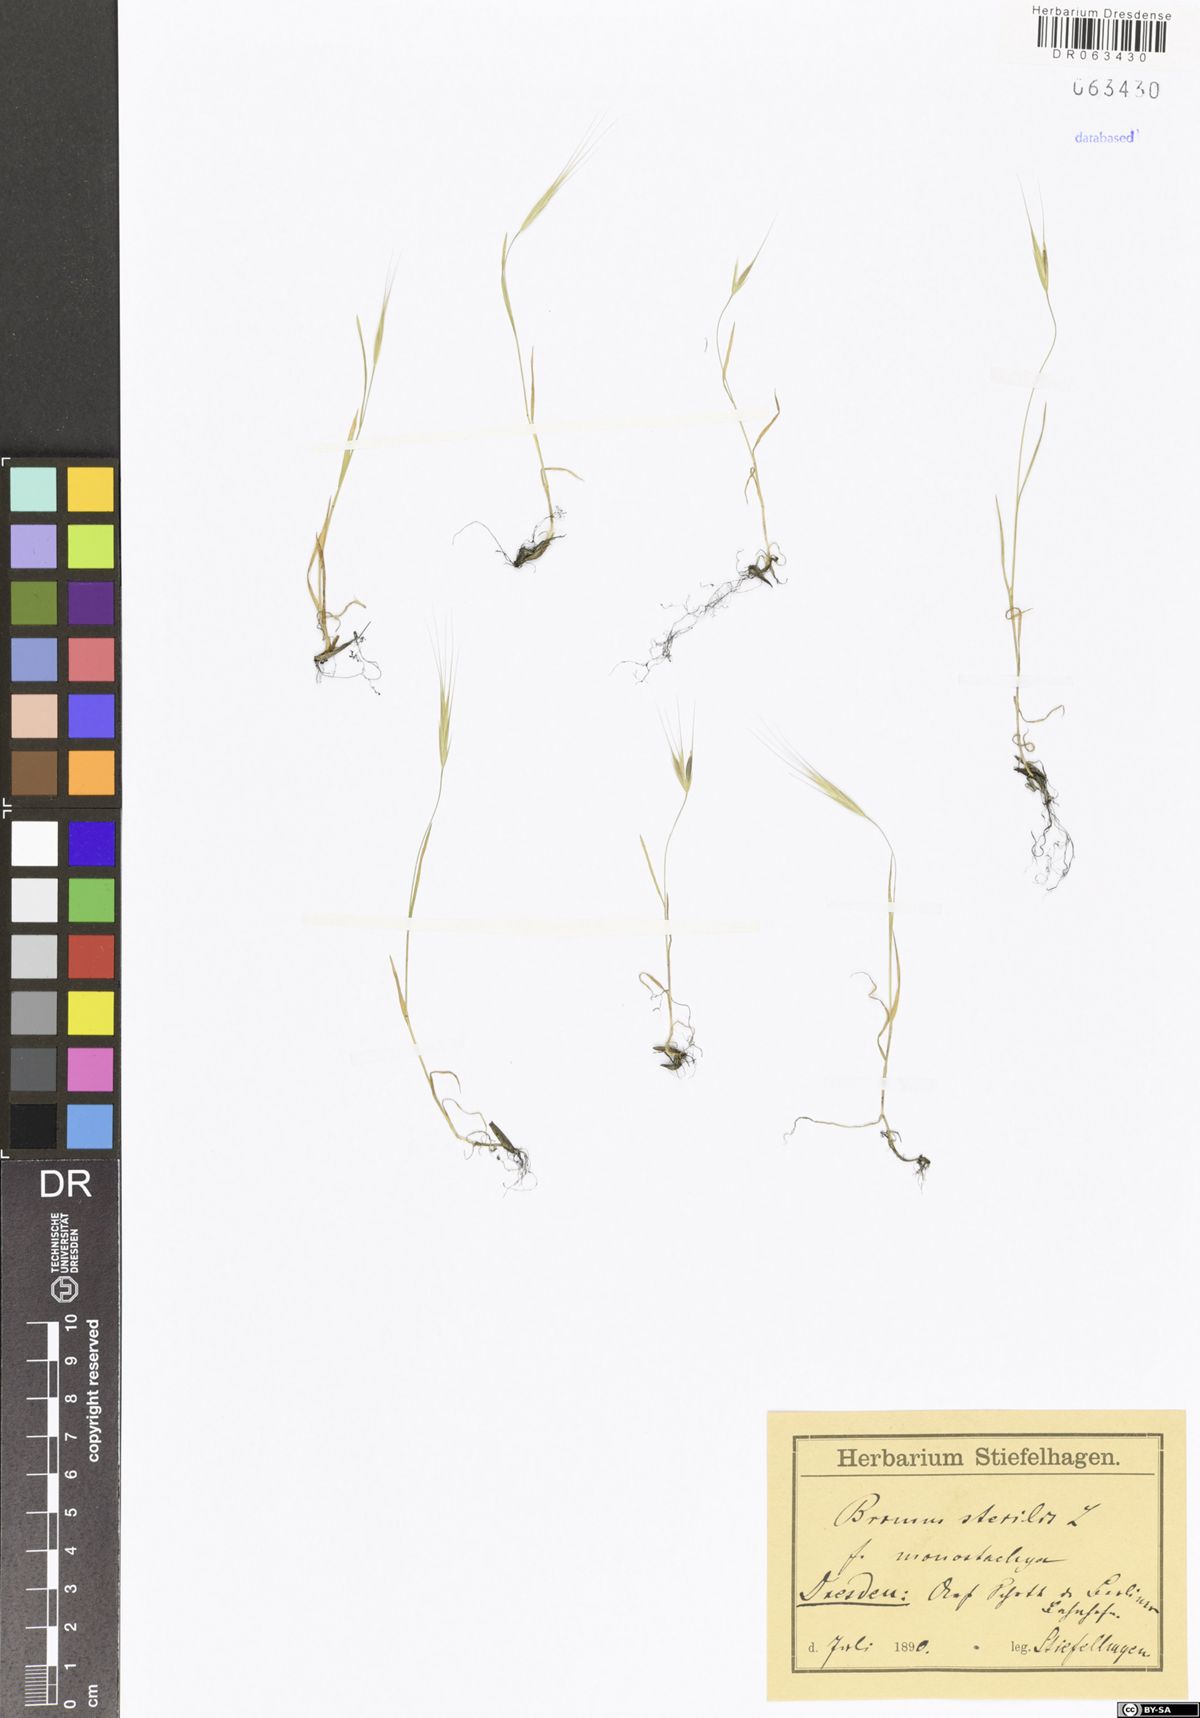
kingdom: Plantae
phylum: Tracheophyta
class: Liliopsida
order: Poales
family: Poaceae
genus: Bromus
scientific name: Bromus sterilis
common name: Poverty brome
